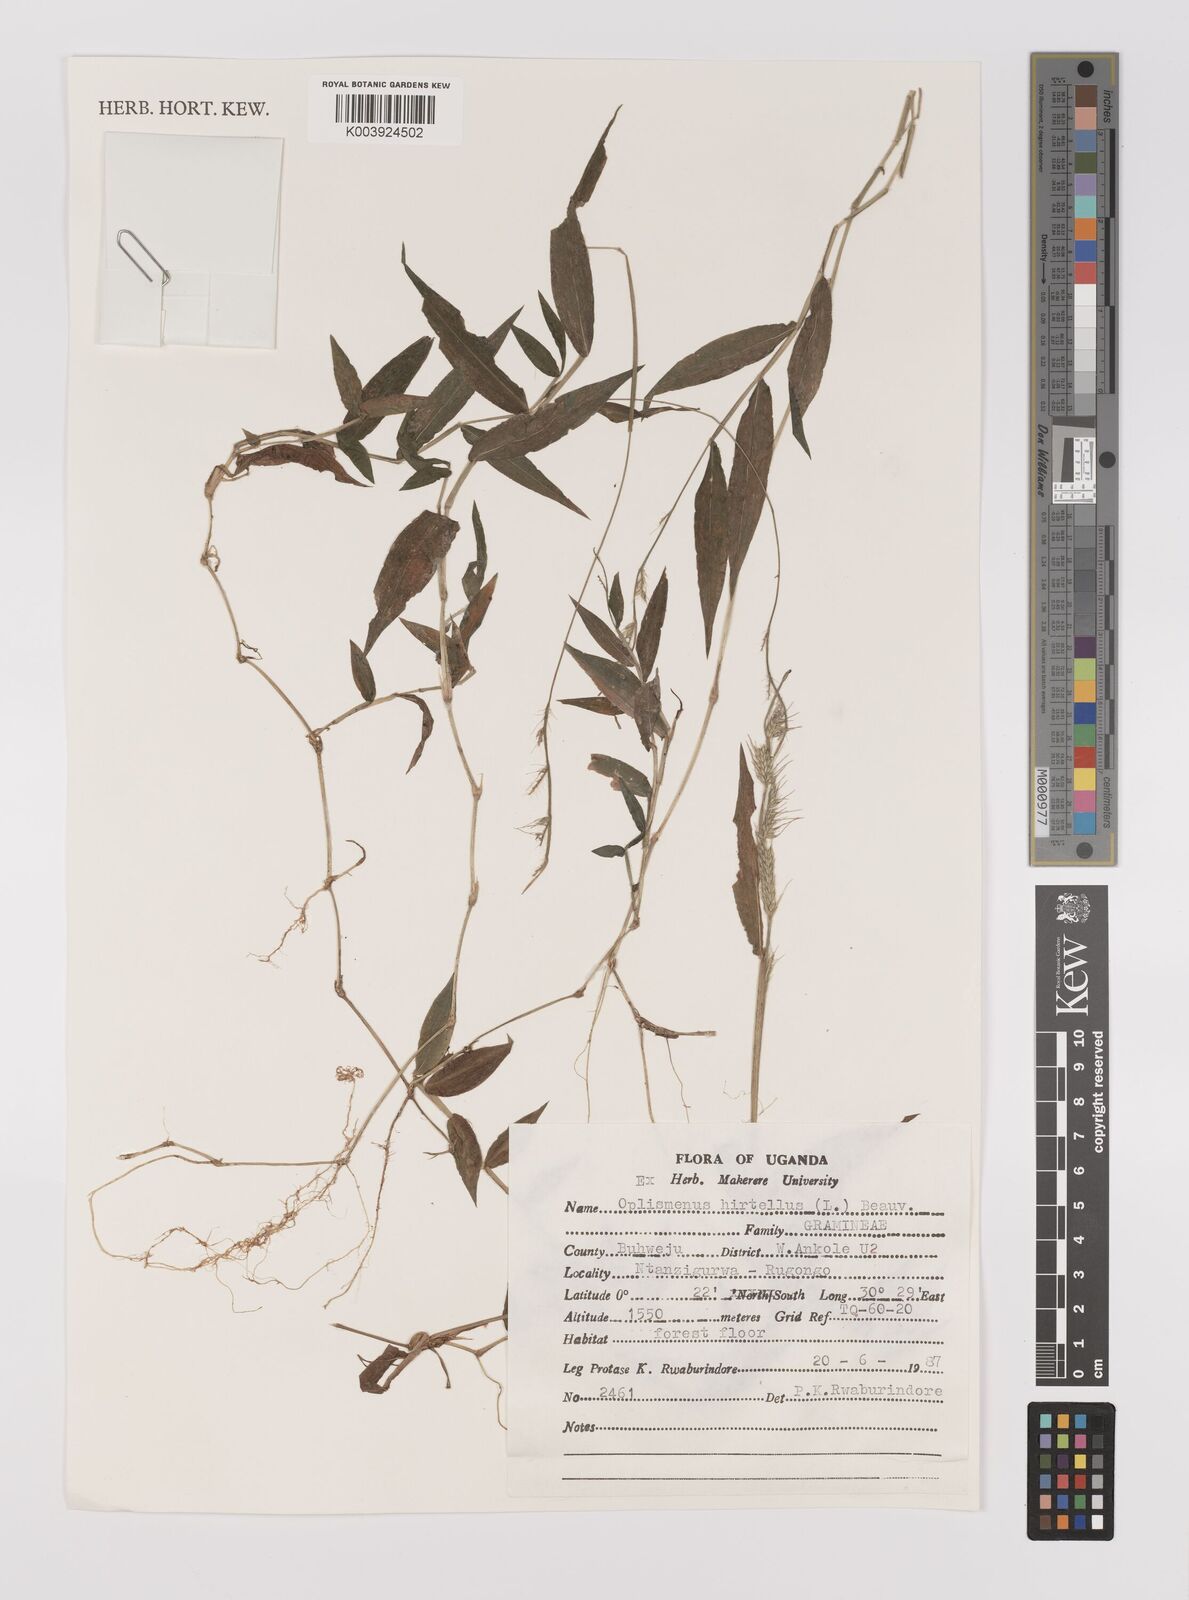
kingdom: Plantae
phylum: Tracheophyta
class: Liliopsida
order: Poales
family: Poaceae
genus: Oplismenus
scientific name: Oplismenus hirtellus
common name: Basketgrass
